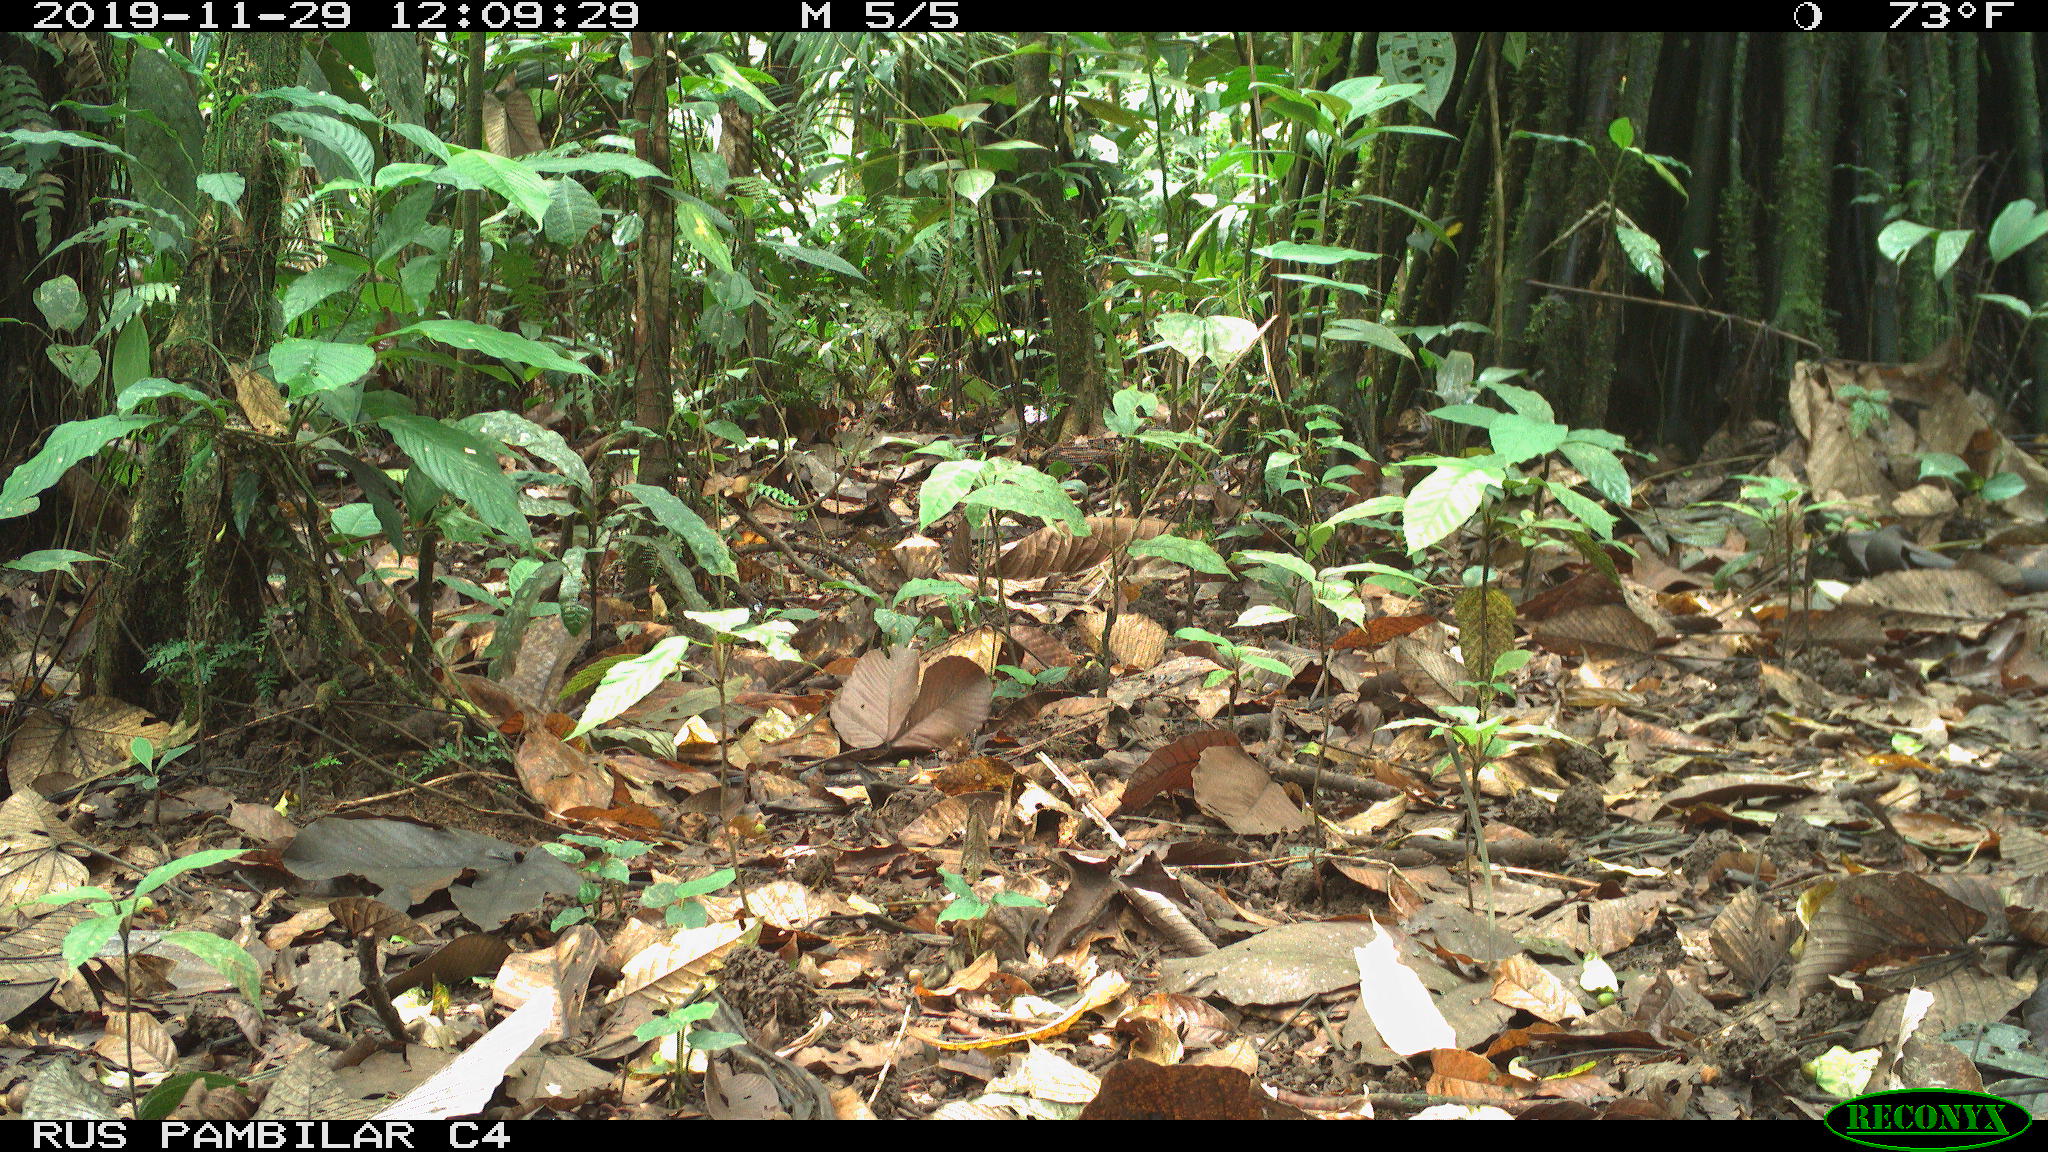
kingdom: Animalia
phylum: Chordata
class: Mammalia
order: Rodentia
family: Dasyproctidae
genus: Dasyprocta
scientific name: Dasyprocta punctata
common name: Central american agouti
